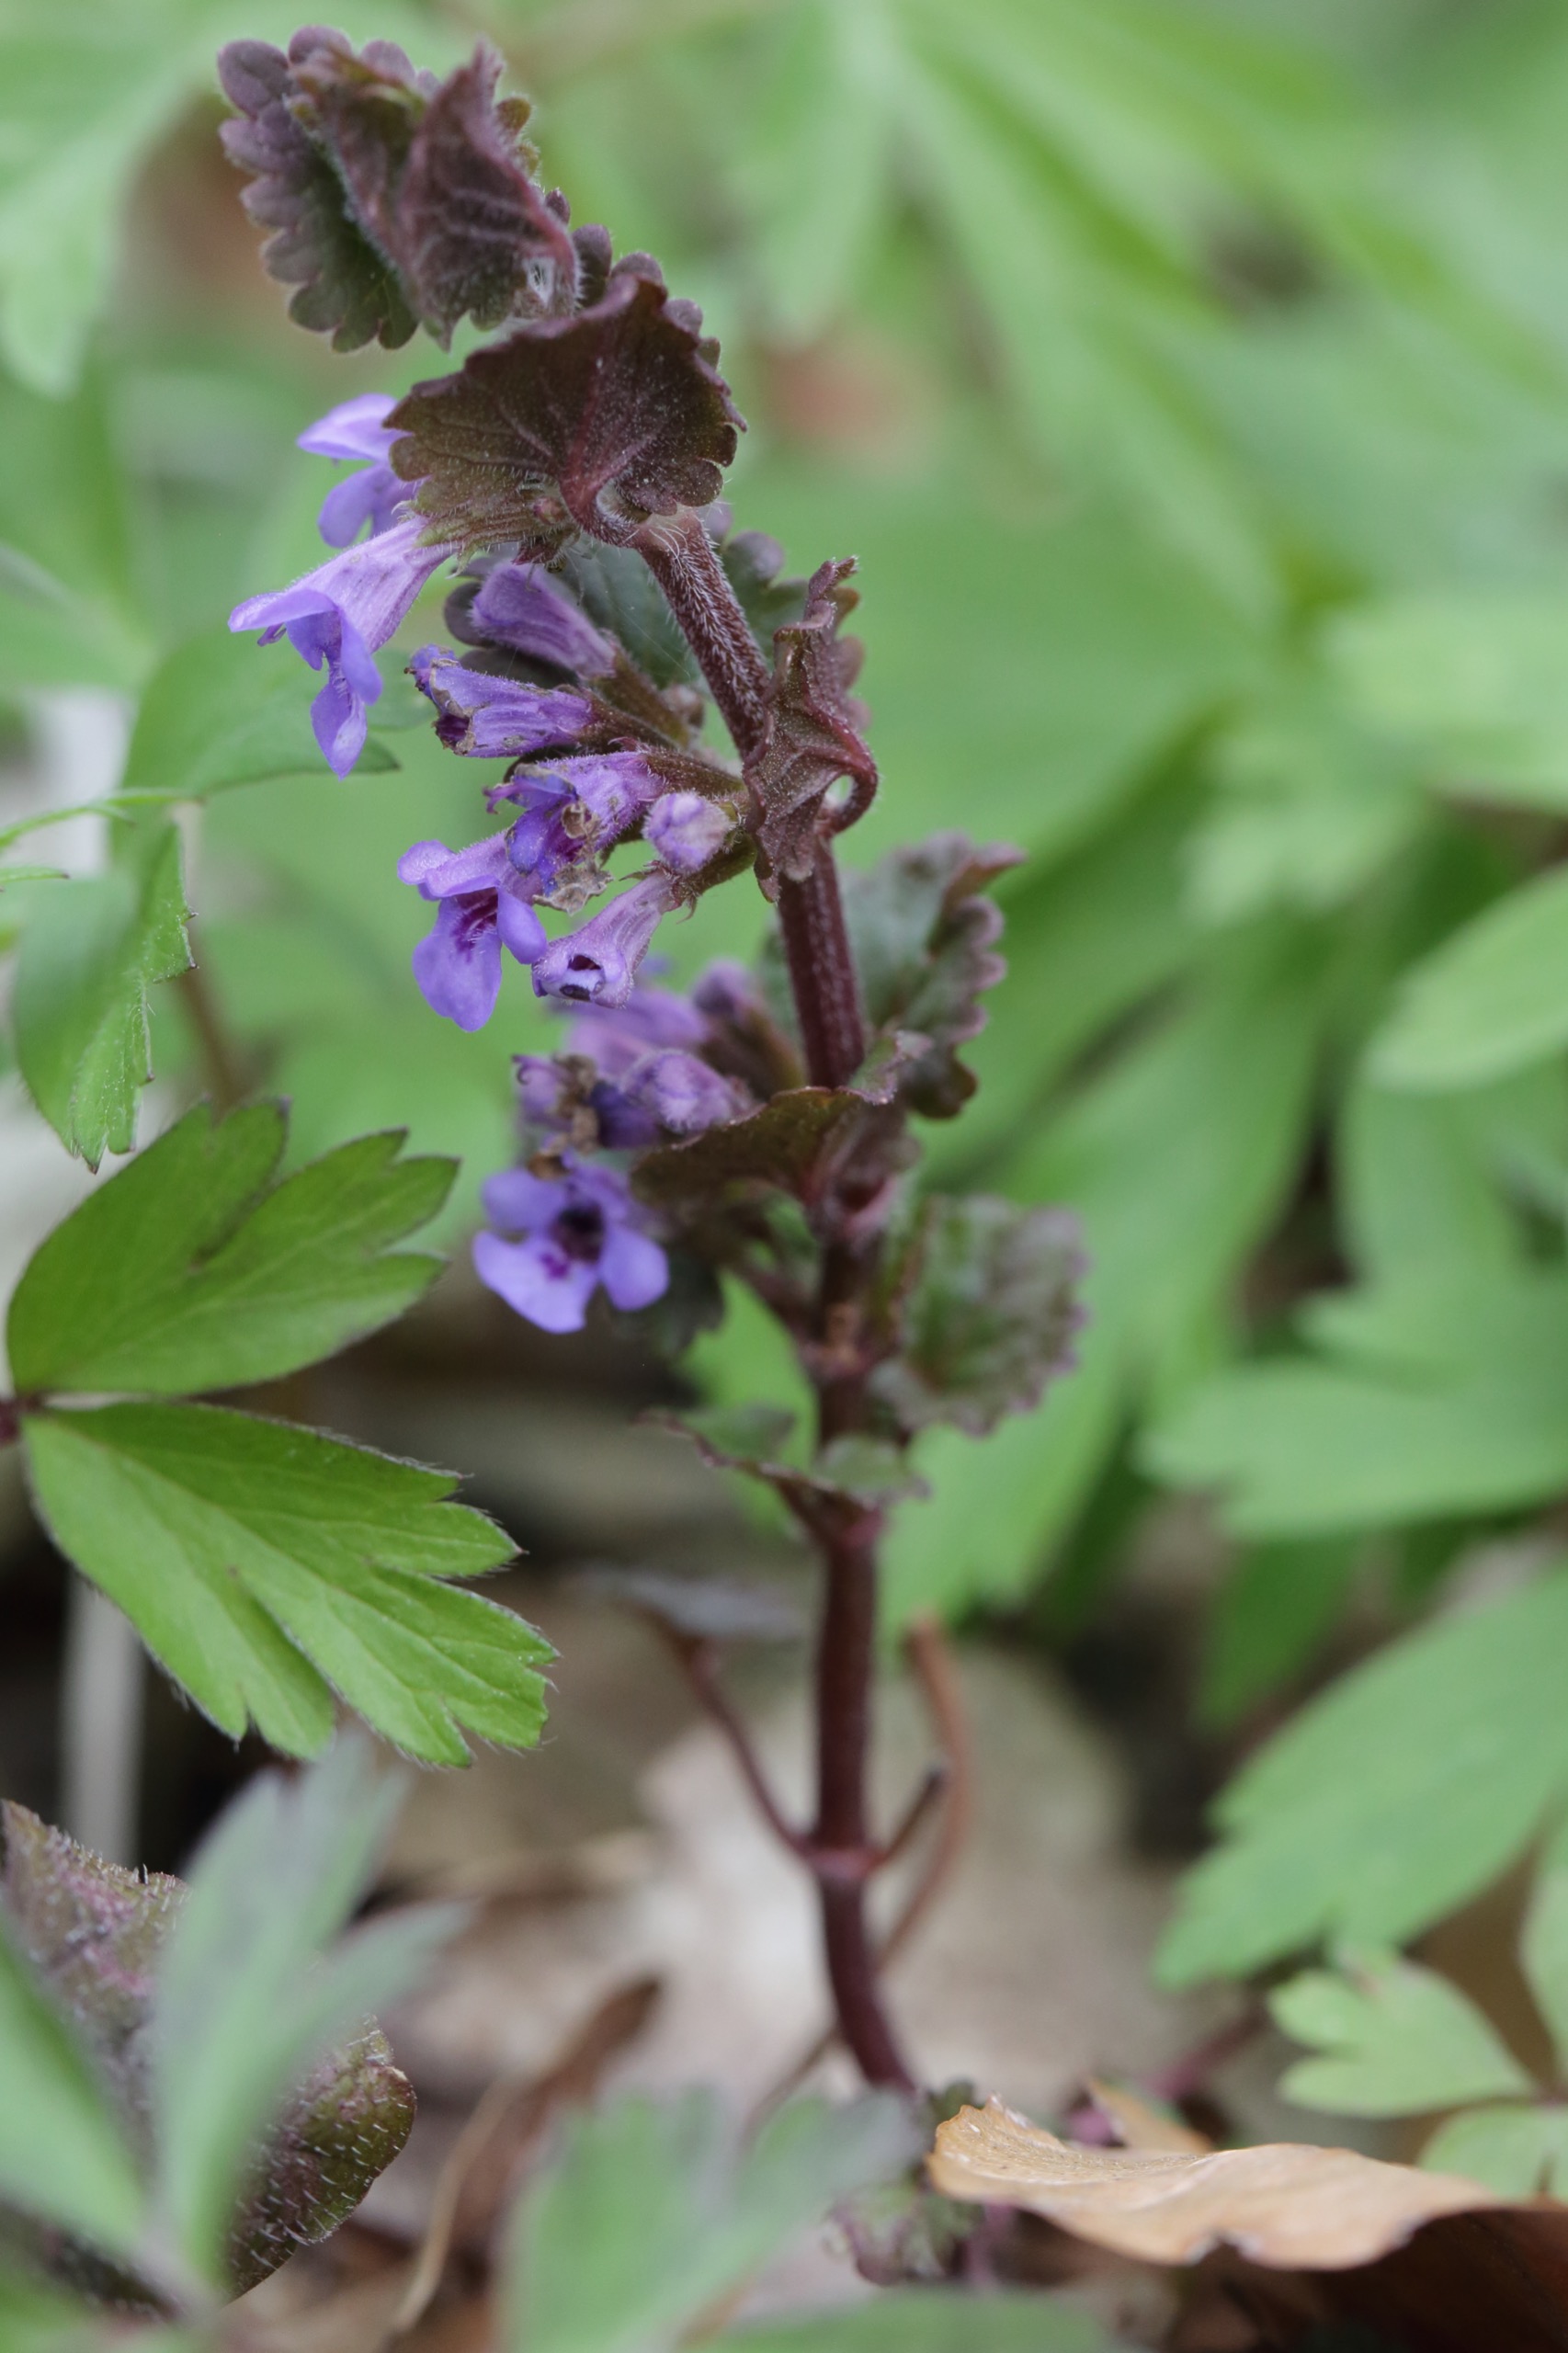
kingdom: Plantae
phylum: Tracheophyta
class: Magnoliopsida
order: Lamiales
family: Lamiaceae
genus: Glechoma
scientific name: Glechoma hederacea
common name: Korsknap
